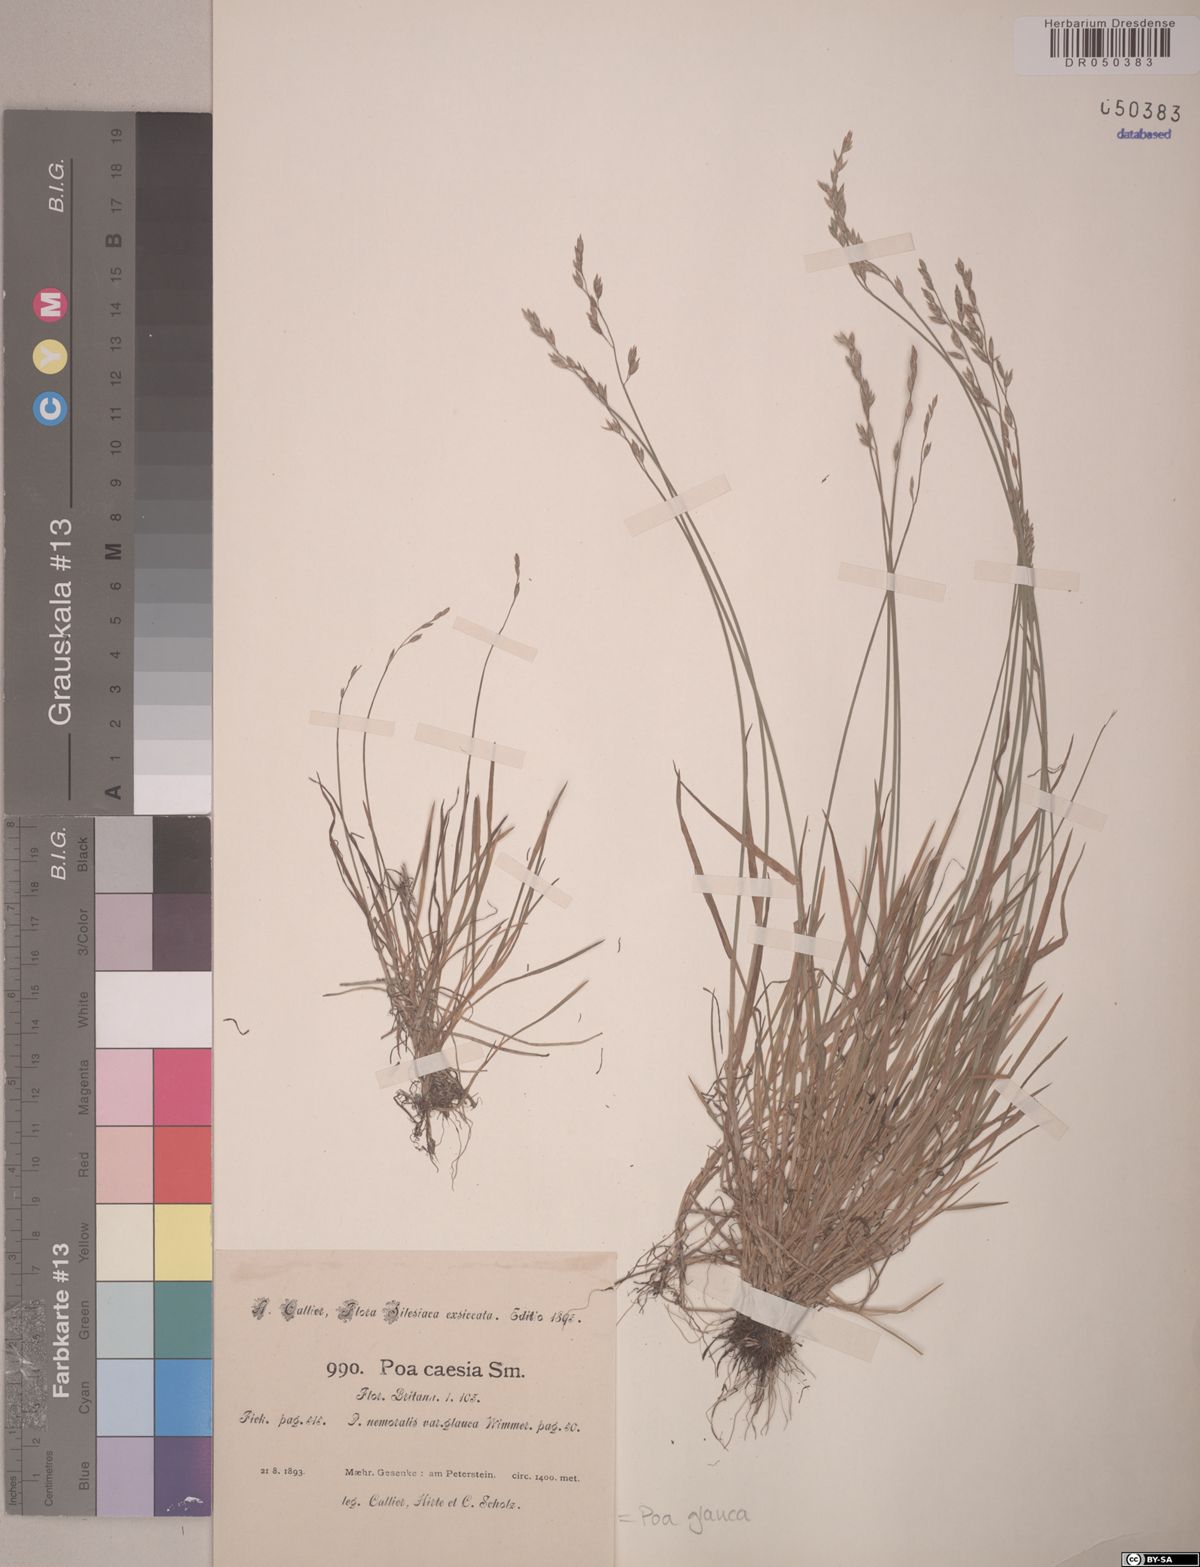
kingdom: Plantae
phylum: Tracheophyta
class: Liliopsida
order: Poales
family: Poaceae
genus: Poa
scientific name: Poa glauca
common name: Glaucous bluegrass
